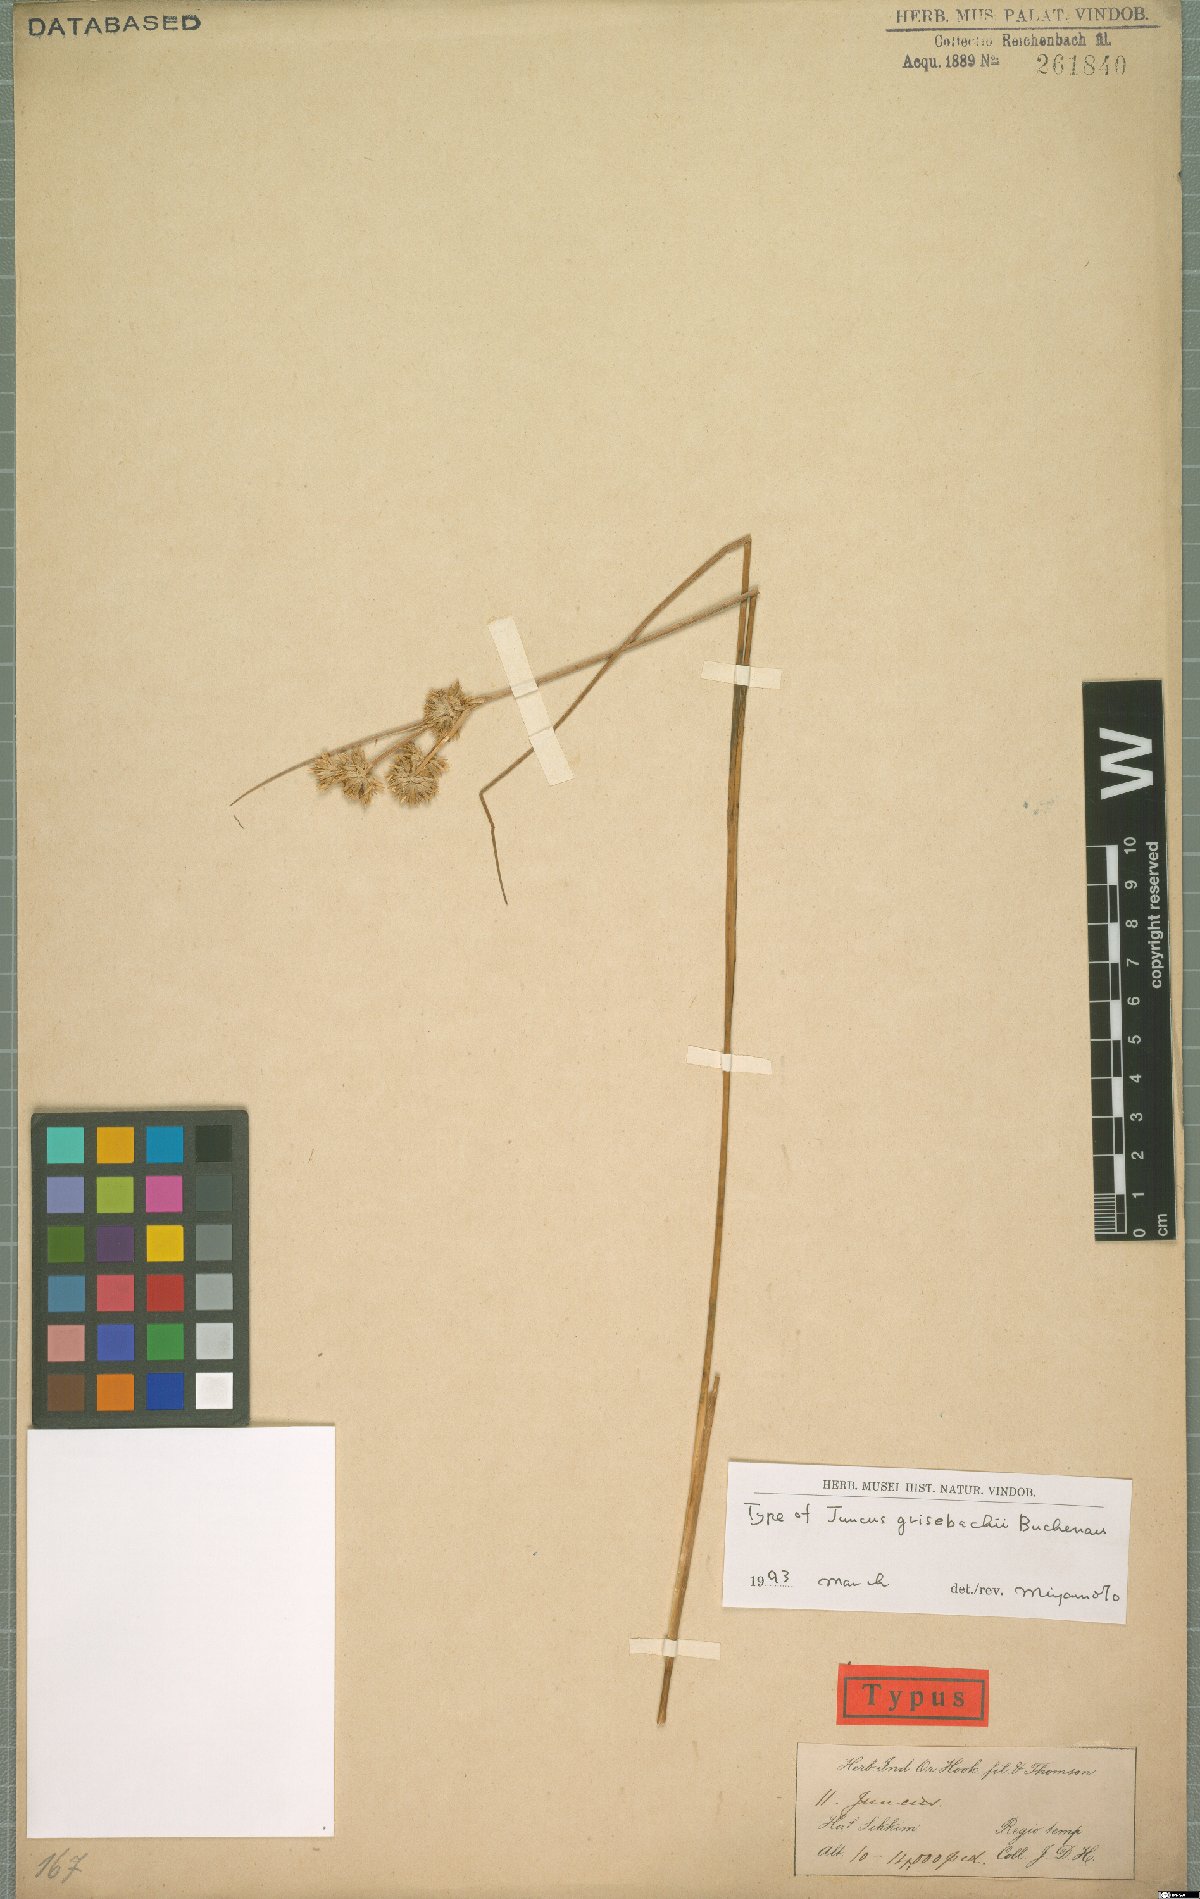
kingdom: Plantae
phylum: Tracheophyta
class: Liliopsida
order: Poales
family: Juncaceae
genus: Juncus
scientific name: Juncus grisebachii
